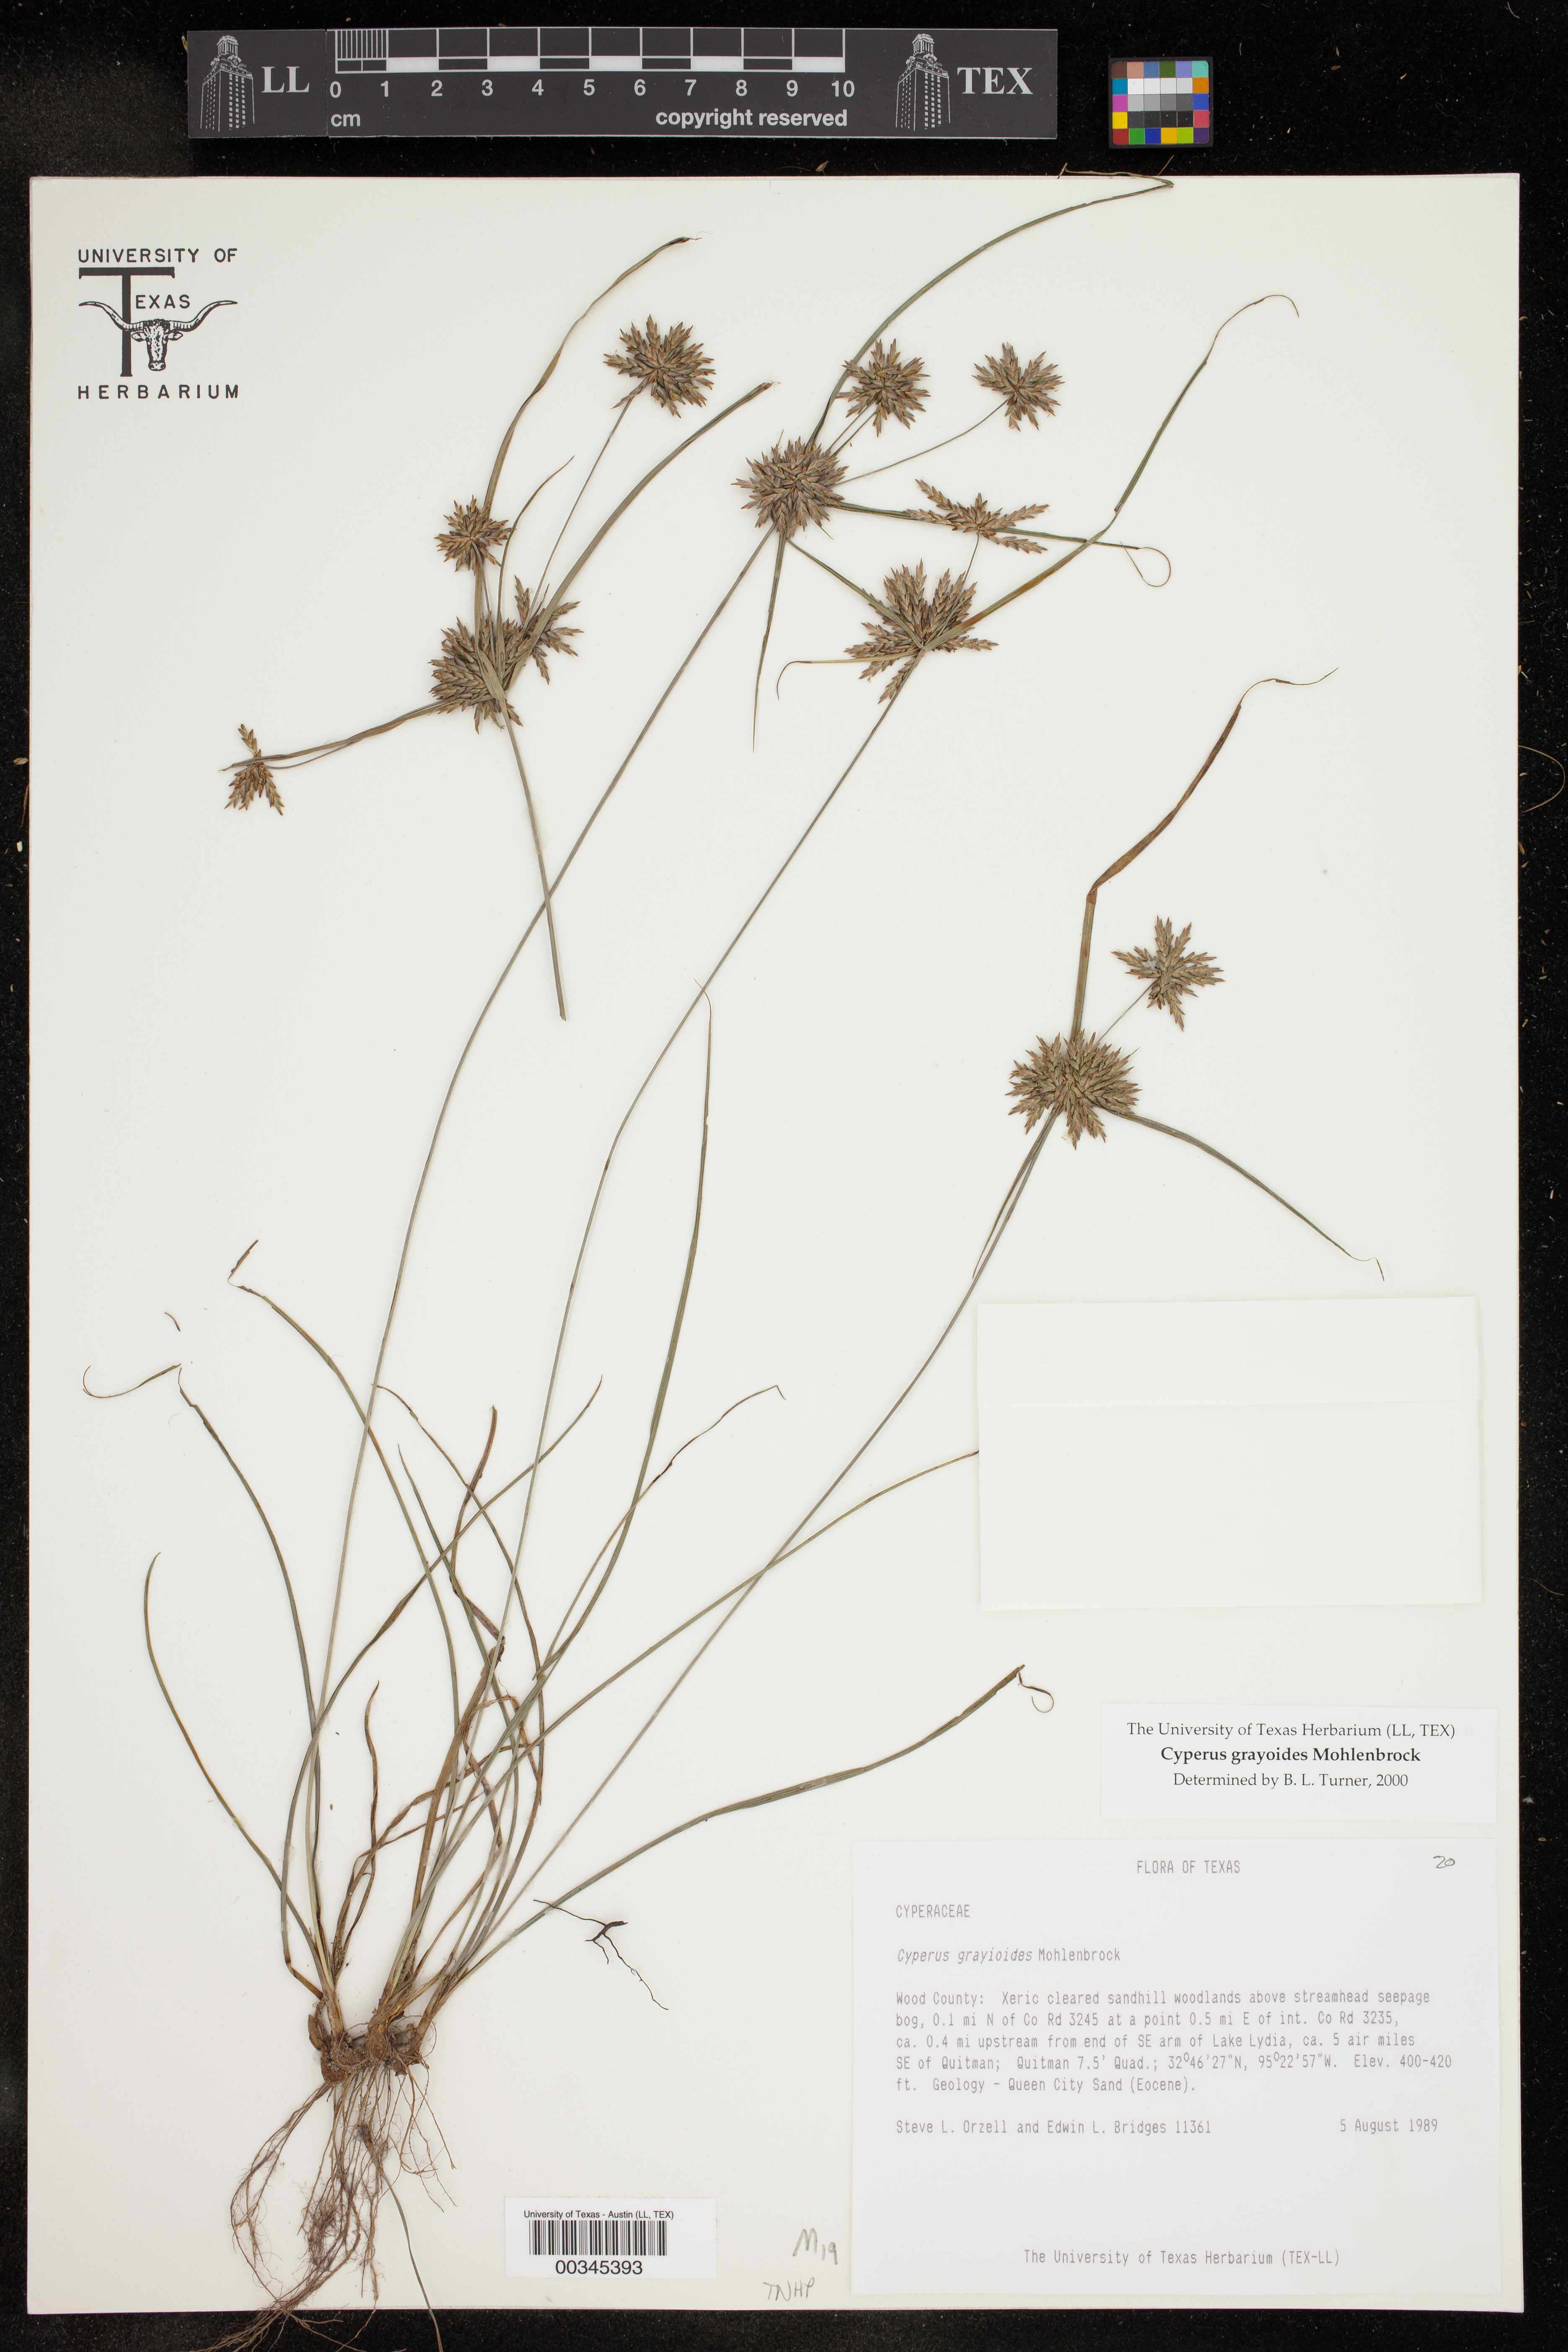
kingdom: Plantae
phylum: Tracheophyta
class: Liliopsida
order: Poales
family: Cyperaceae
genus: Cyperus
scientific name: Cyperus grayioides
